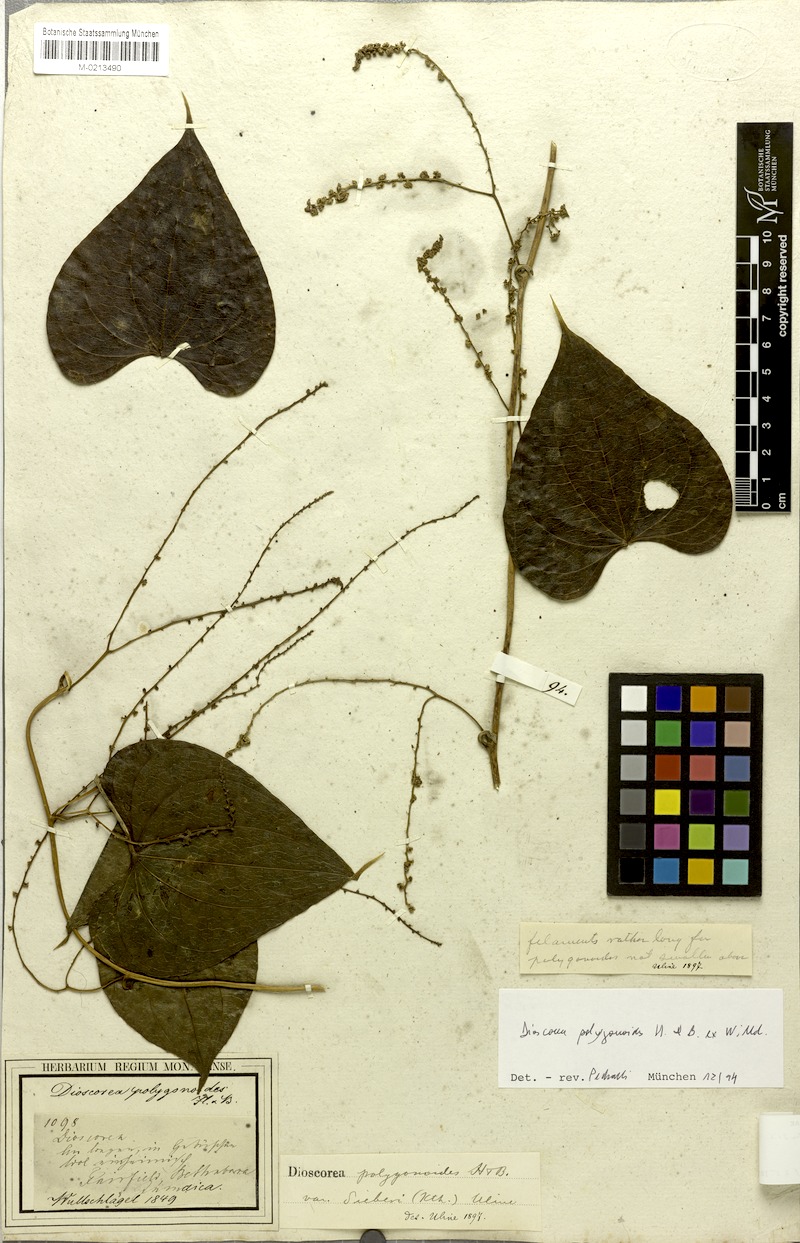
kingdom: Plantae
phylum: Tracheophyta
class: Liliopsida
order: Dioscoreales
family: Dioscoreaceae
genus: Dioscorea
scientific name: Dioscorea polygonoides
